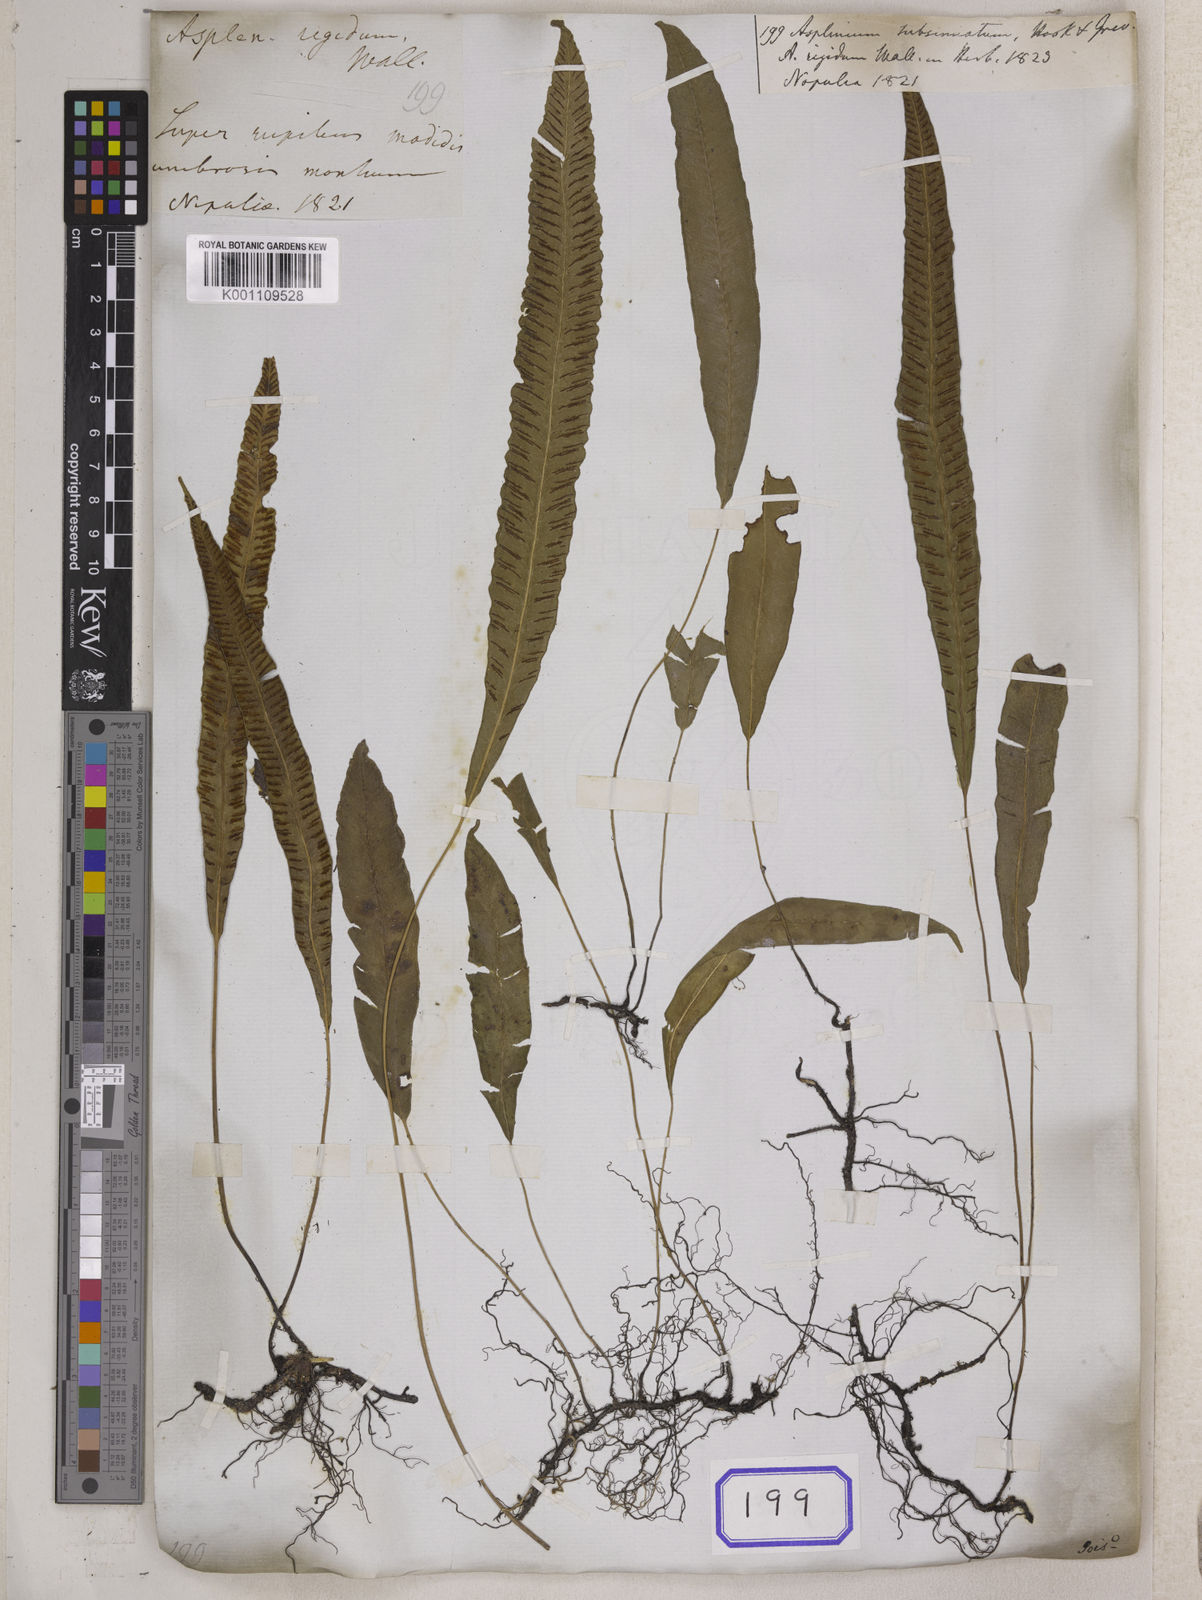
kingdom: Plantae
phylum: Tracheophyta
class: Polypodiopsida
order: Polypodiales
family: Athyriaceae
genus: Deparia
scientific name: Deparia lancea
